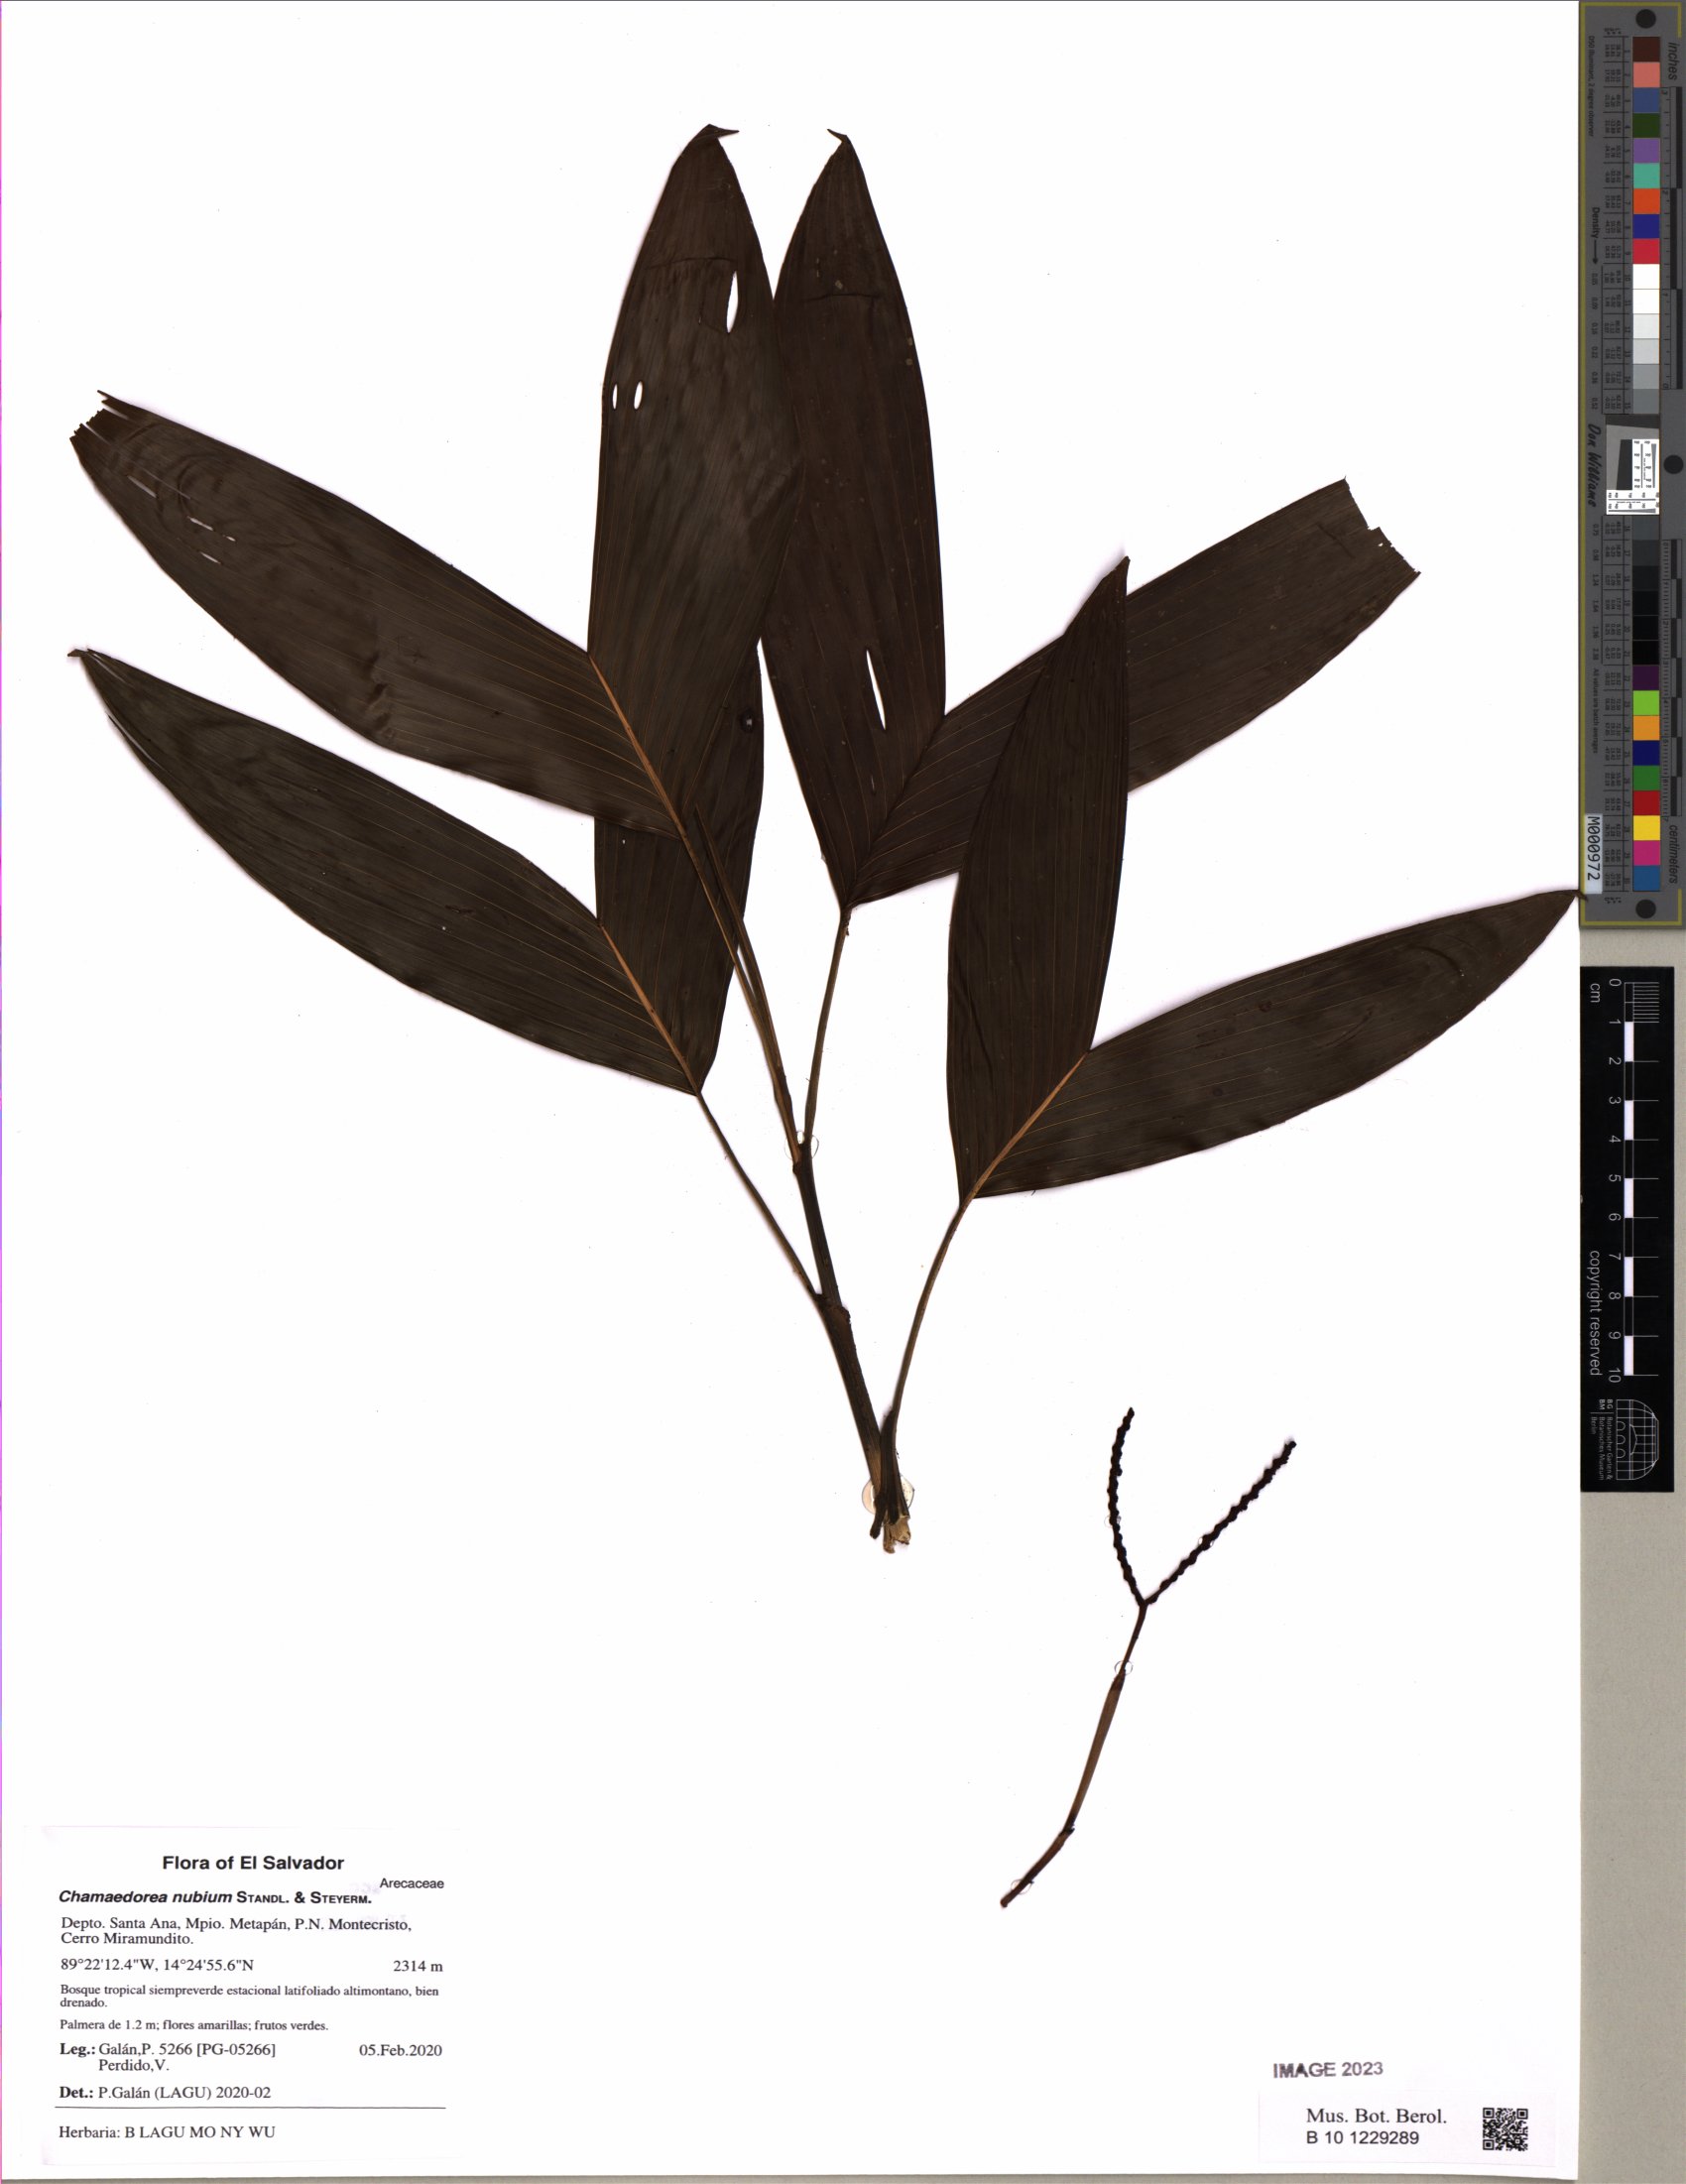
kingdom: Plantae
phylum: Tracheophyta
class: Liliopsida
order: Arecales
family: Arecaceae
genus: Chamaedorea
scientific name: Chamaedorea nubium
